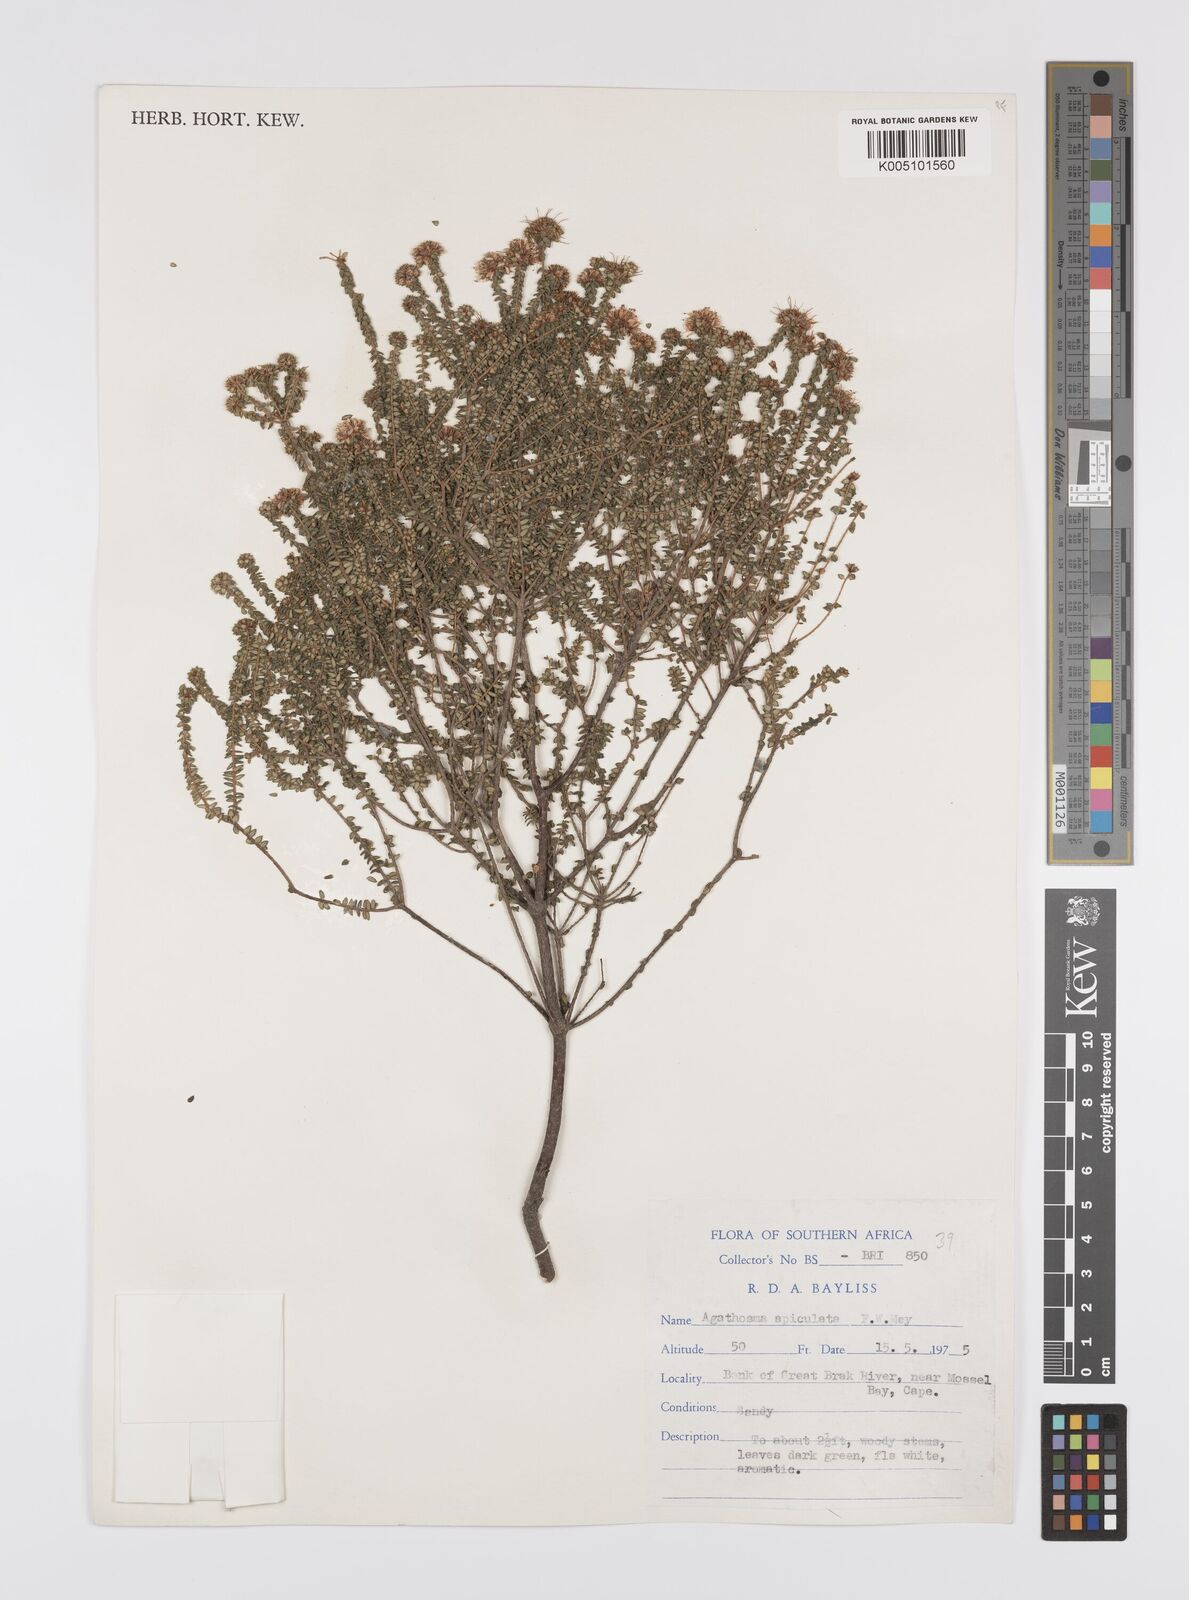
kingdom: Plantae
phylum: Tracheophyta
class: Magnoliopsida
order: Sapindales
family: Rutaceae
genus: Agathosma
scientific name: Agathosma
